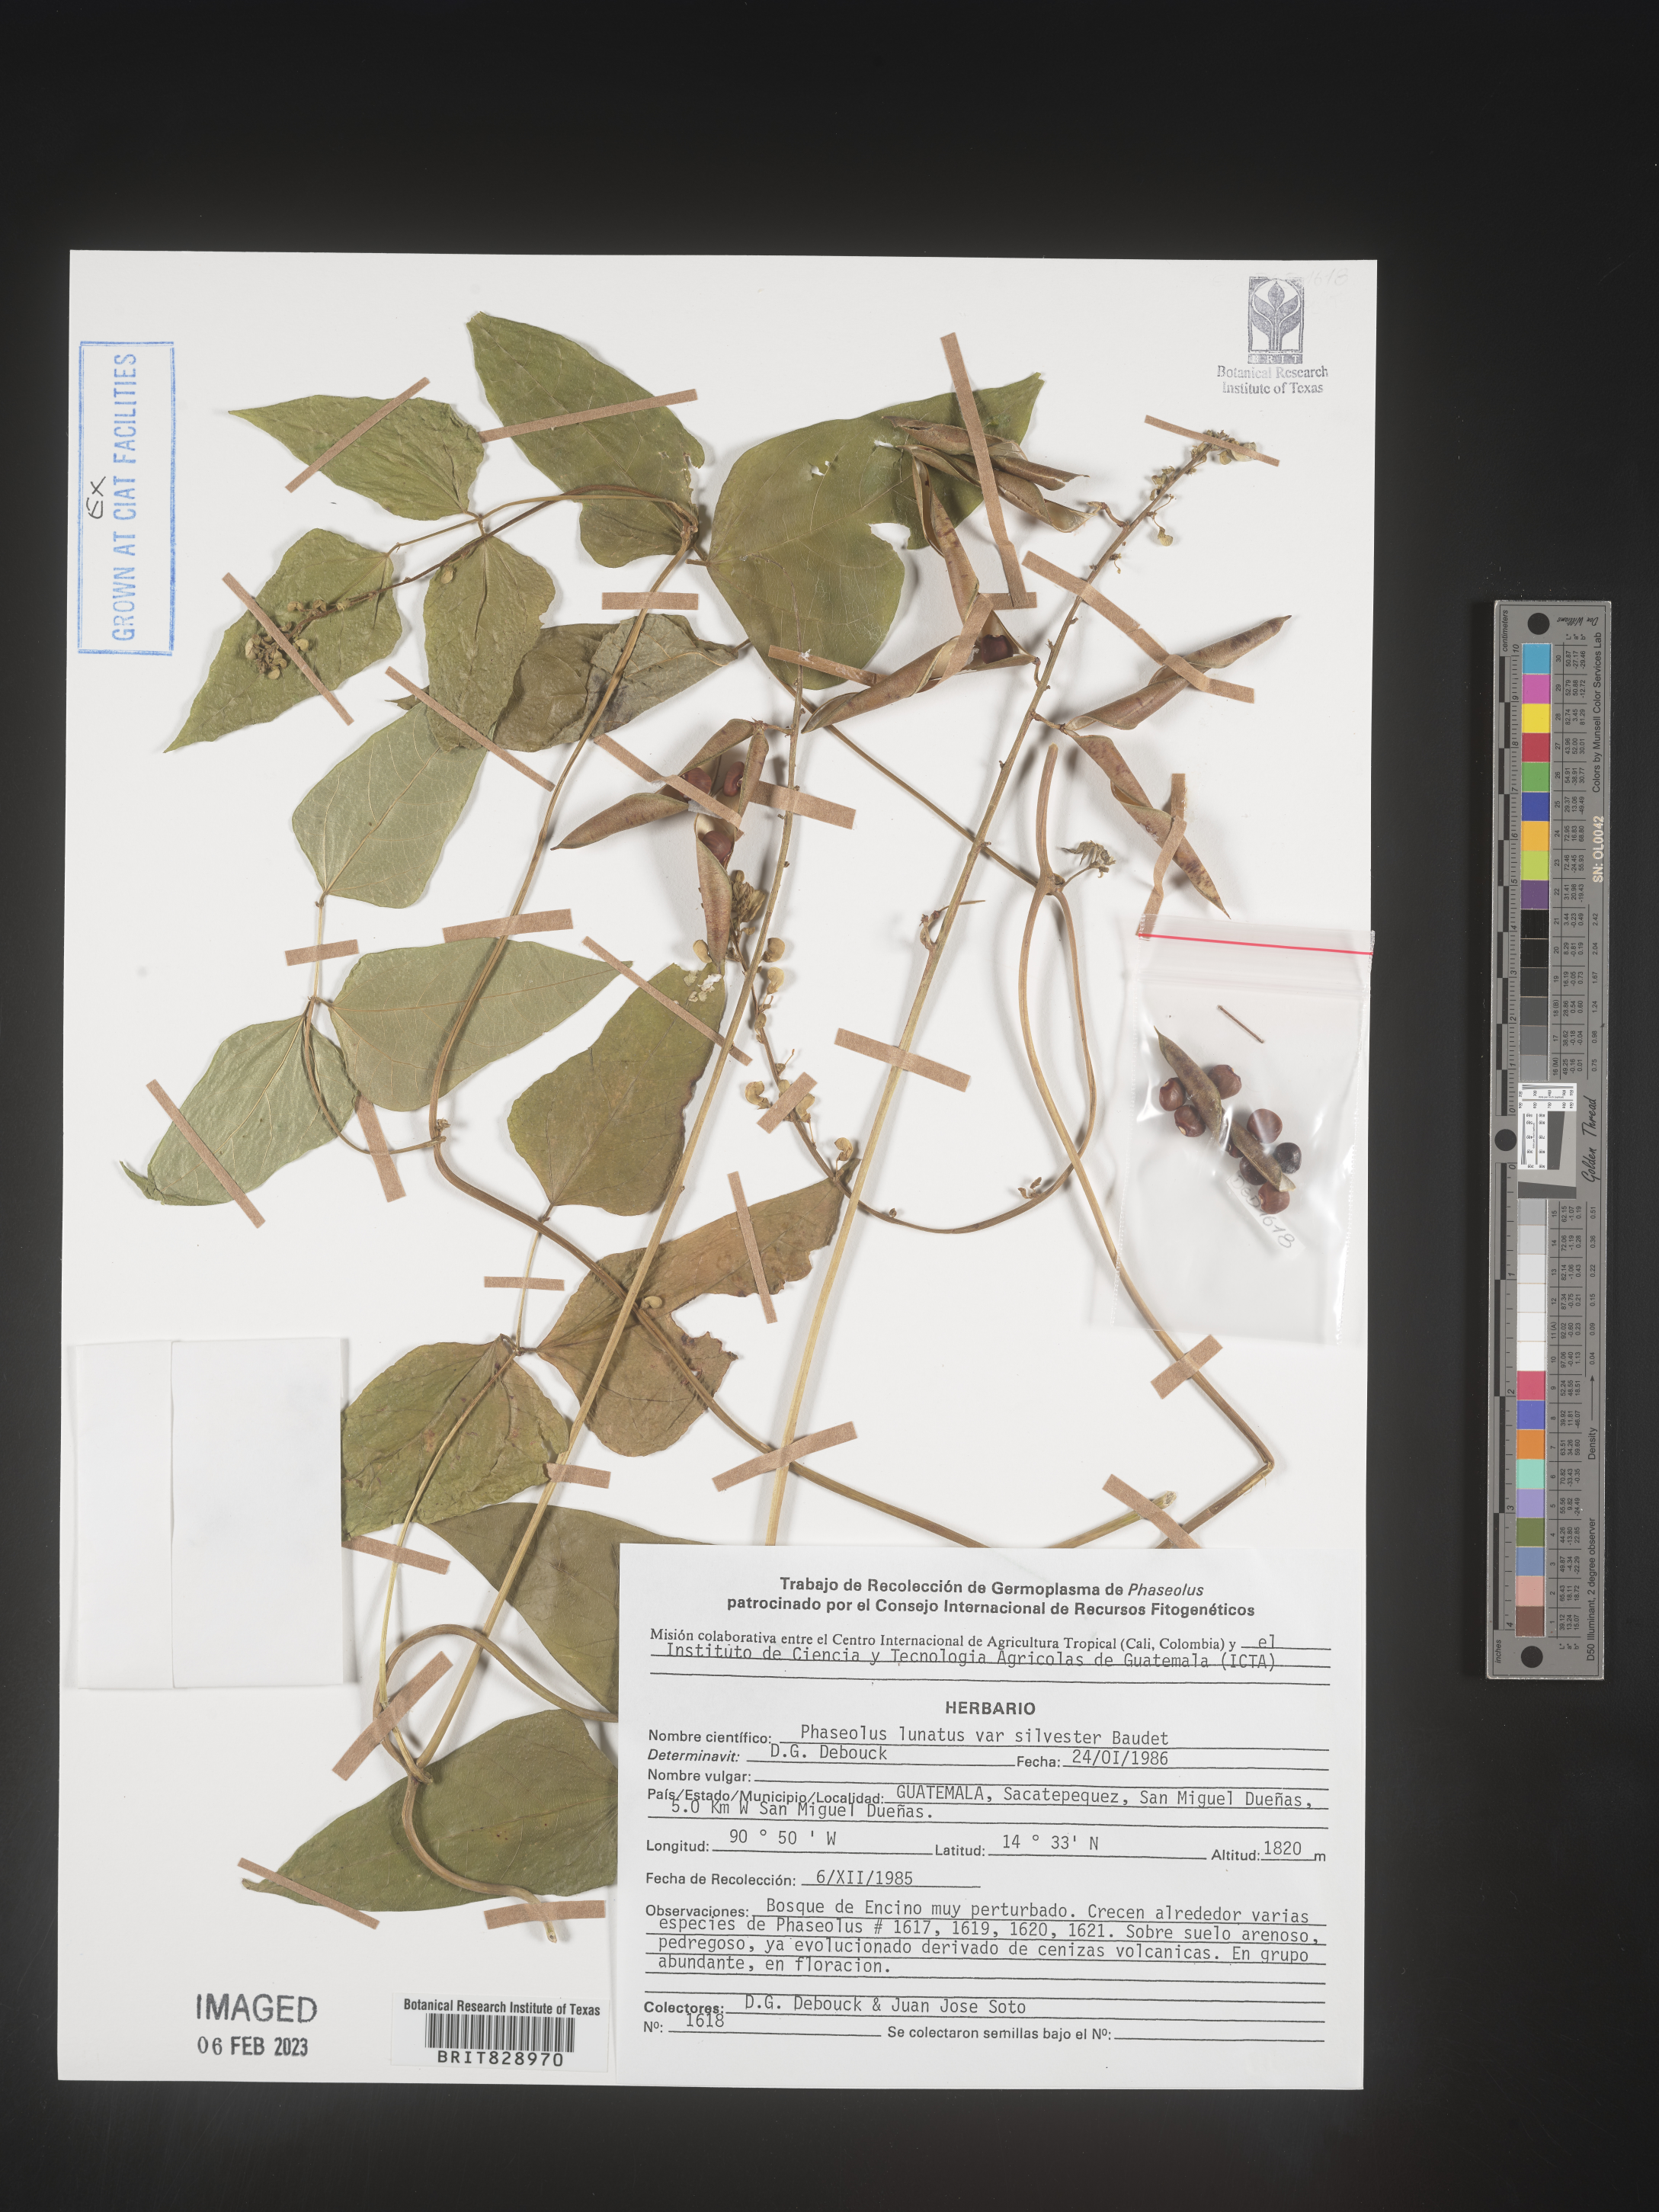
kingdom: Plantae
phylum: Tracheophyta
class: Magnoliopsida
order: Fabales
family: Fabaceae
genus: Phaseolus
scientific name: Phaseolus
